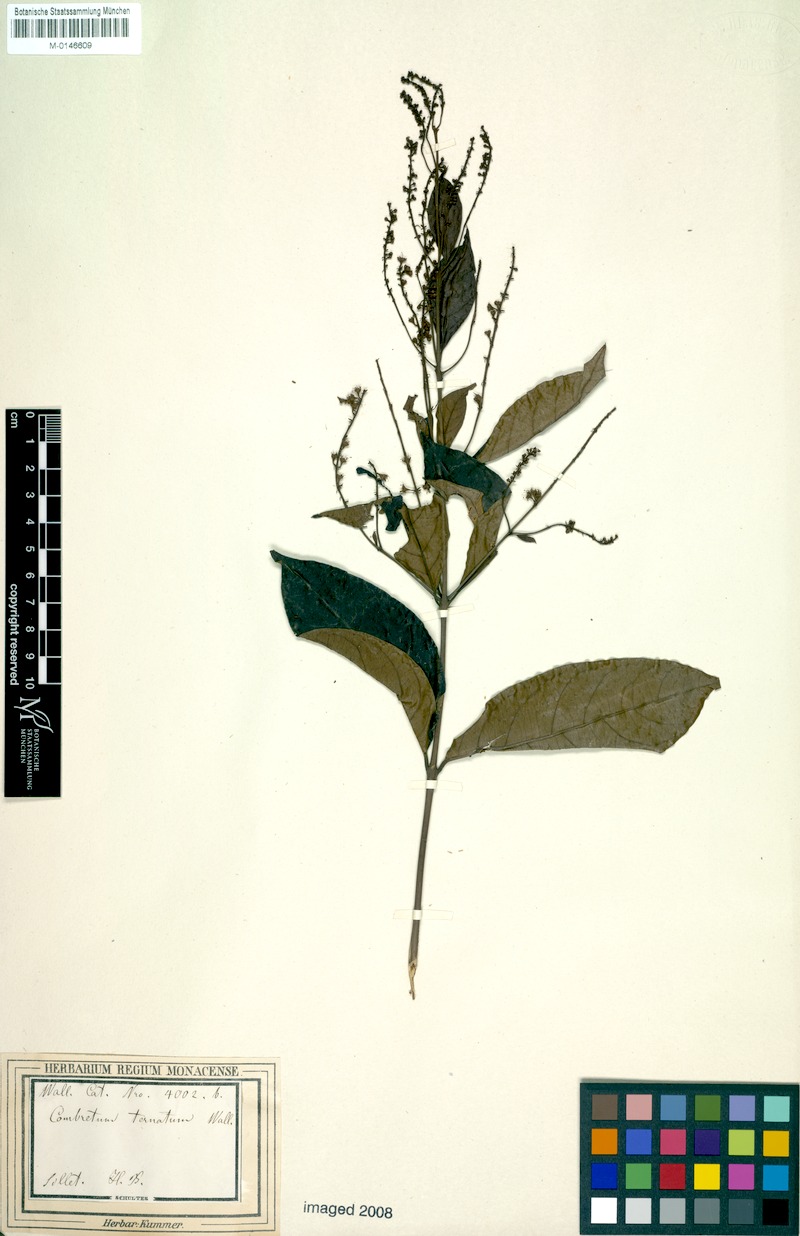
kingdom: Plantae
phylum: Tracheophyta
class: Magnoliopsida
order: Myrtales
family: Combretaceae
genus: Combretum
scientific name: Combretum griffithii
